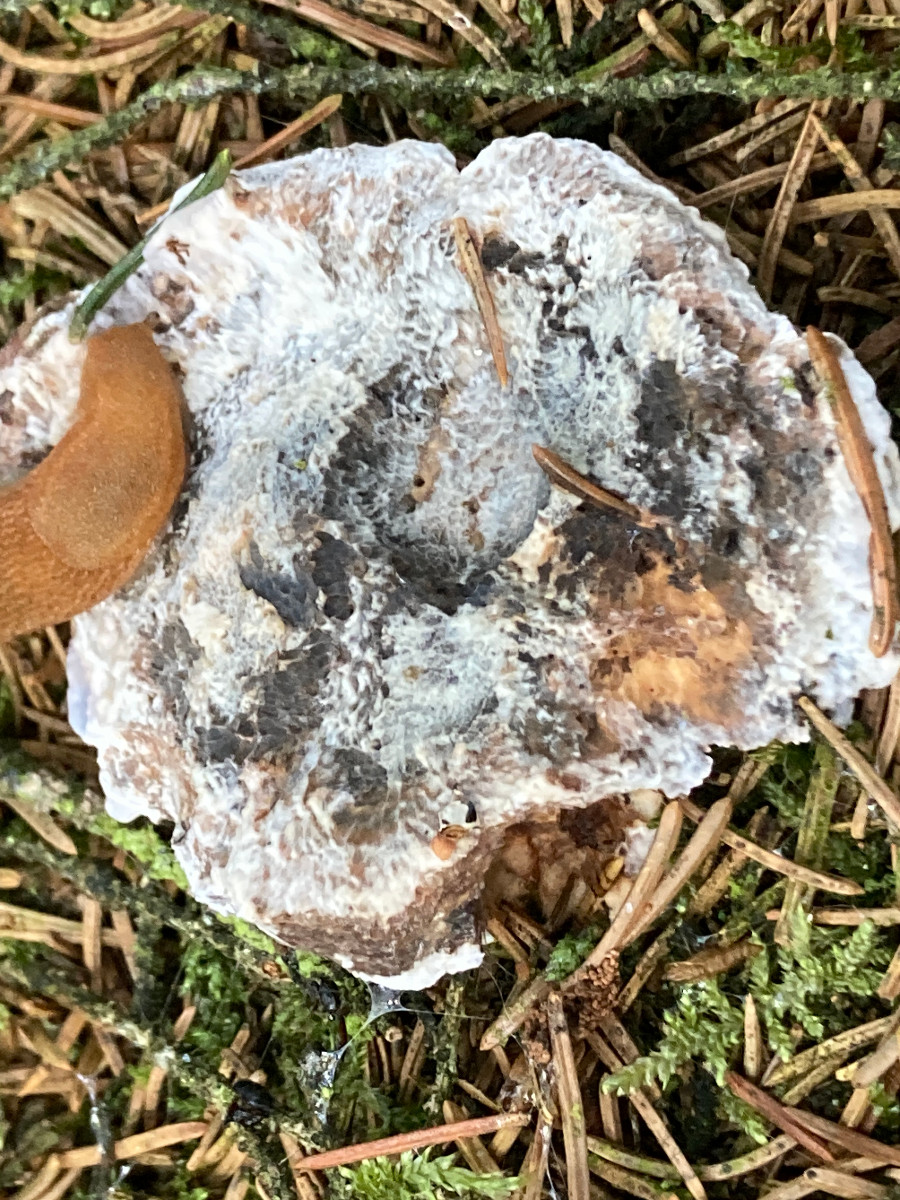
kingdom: Fungi
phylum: Basidiomycota
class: Agaricomycetes
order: Thelephorales
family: Bankeraceae
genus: Hydnellum
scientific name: Hydnellum caeruleum
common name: blålig korkpigsvamp
